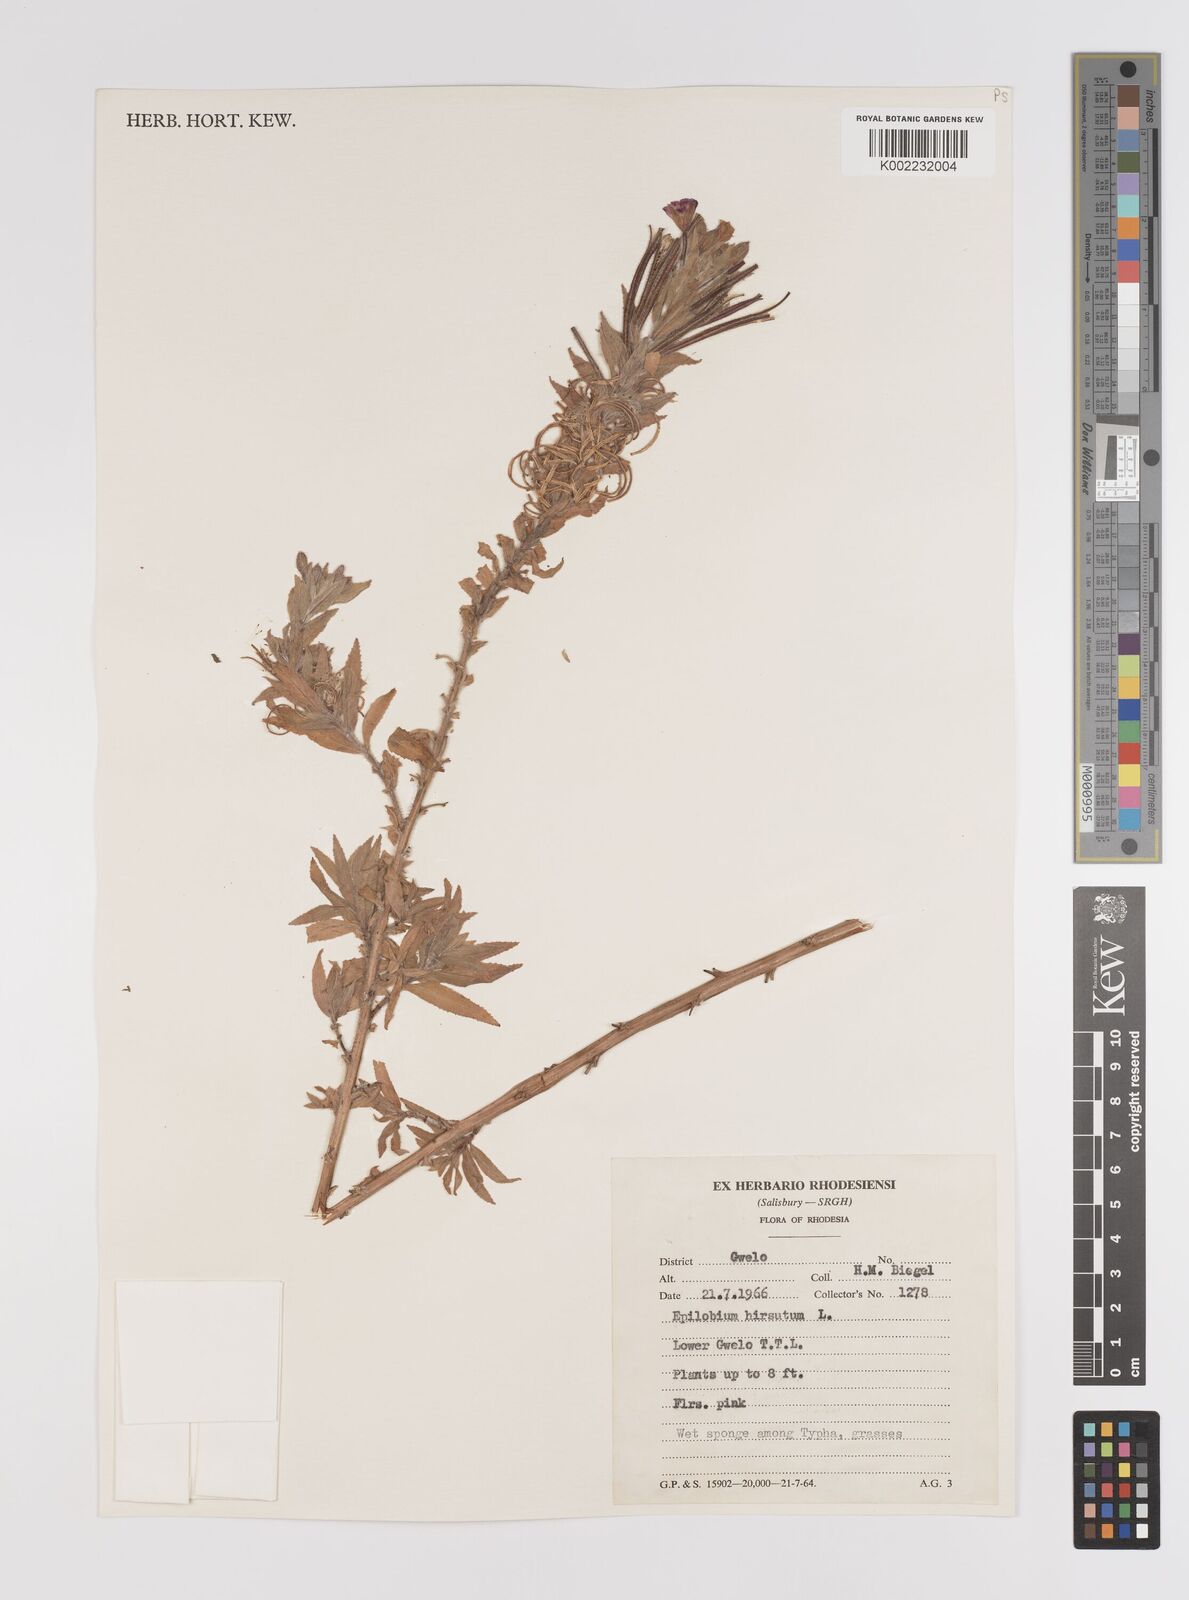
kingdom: Plantae
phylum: Tracheophyta
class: Magnoliopsida
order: Myrtales
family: Onagraceae
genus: Epilobium
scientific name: Epilobium hirsutum
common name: Great willowherb
